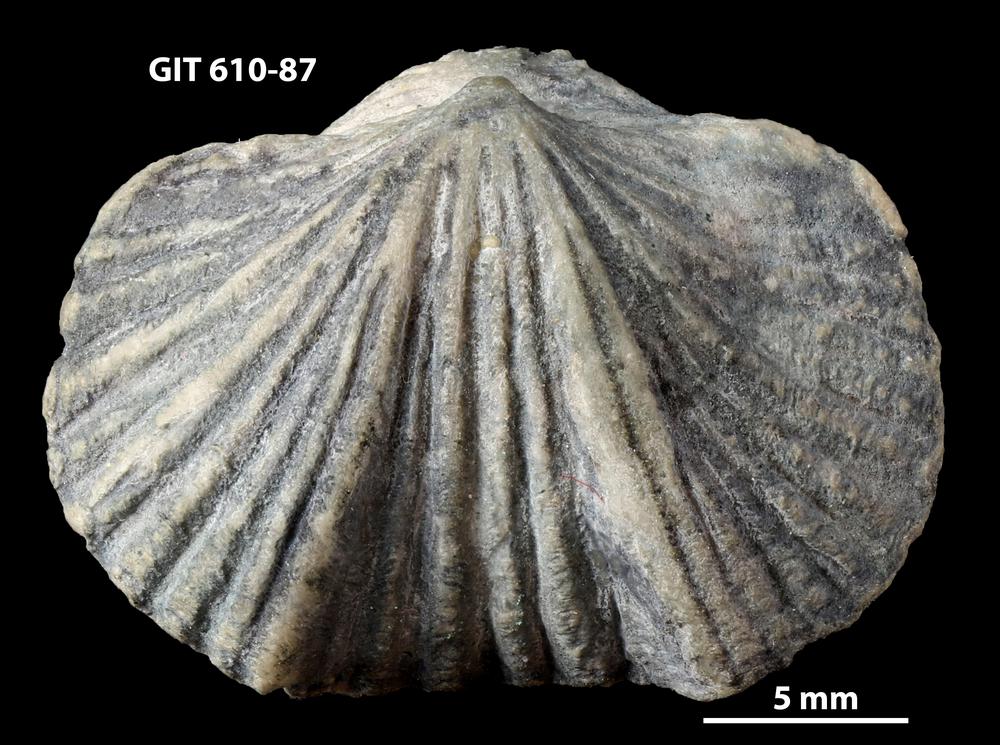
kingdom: Animalia
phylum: Brachiopoda
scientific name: Brachiopoda
